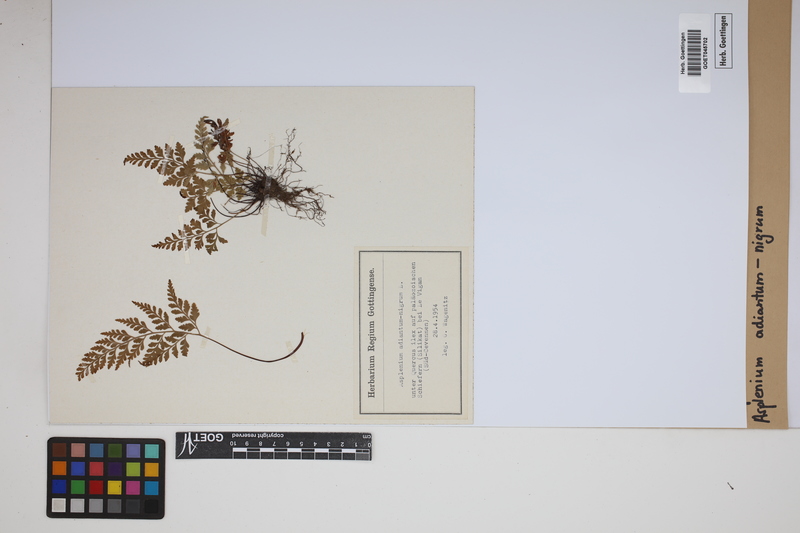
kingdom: Plantae
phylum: Tracheophyta
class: Polypodiopsida
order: Polypodiales
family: Aspleniaceae
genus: Asplenium
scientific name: Asplenium adiantum-nigrum
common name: Black spleenwort
